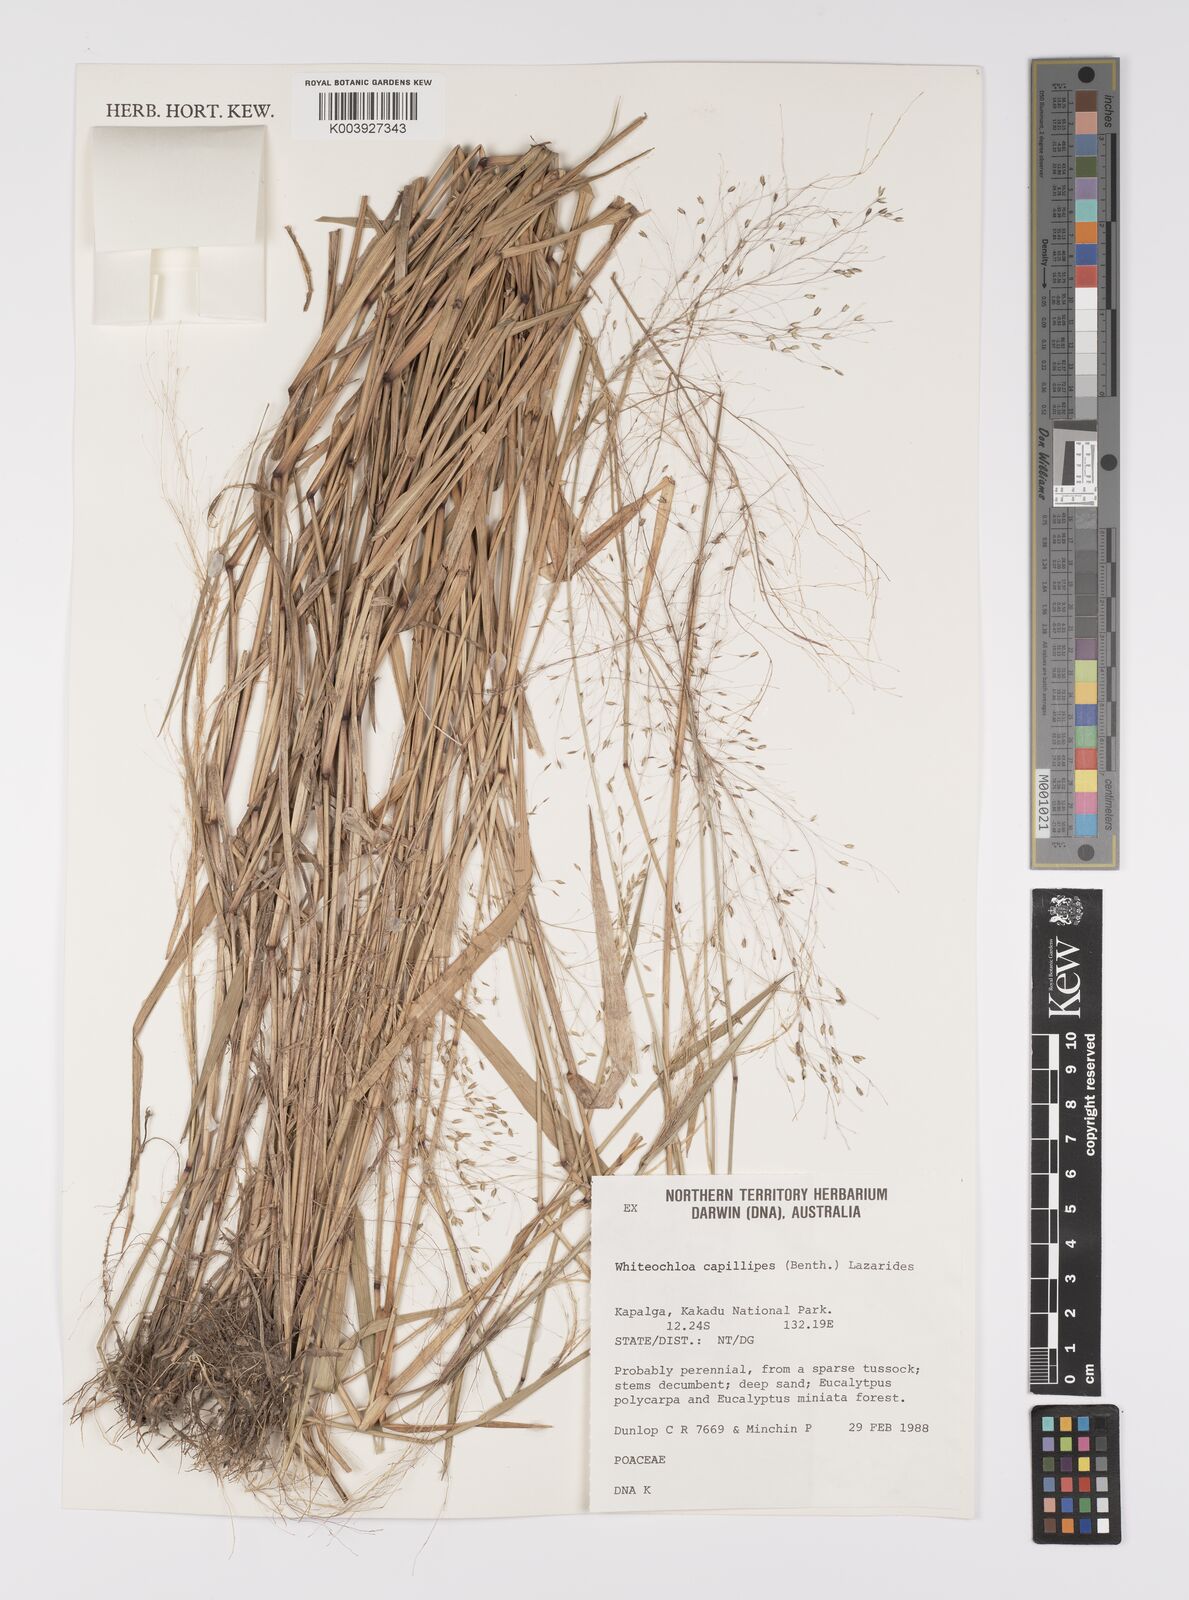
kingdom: Plantae
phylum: Tracheophyta
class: Liliopsida
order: Poales
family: Poaceae
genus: Whiteochloa
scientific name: Whiteochloa capillipes
